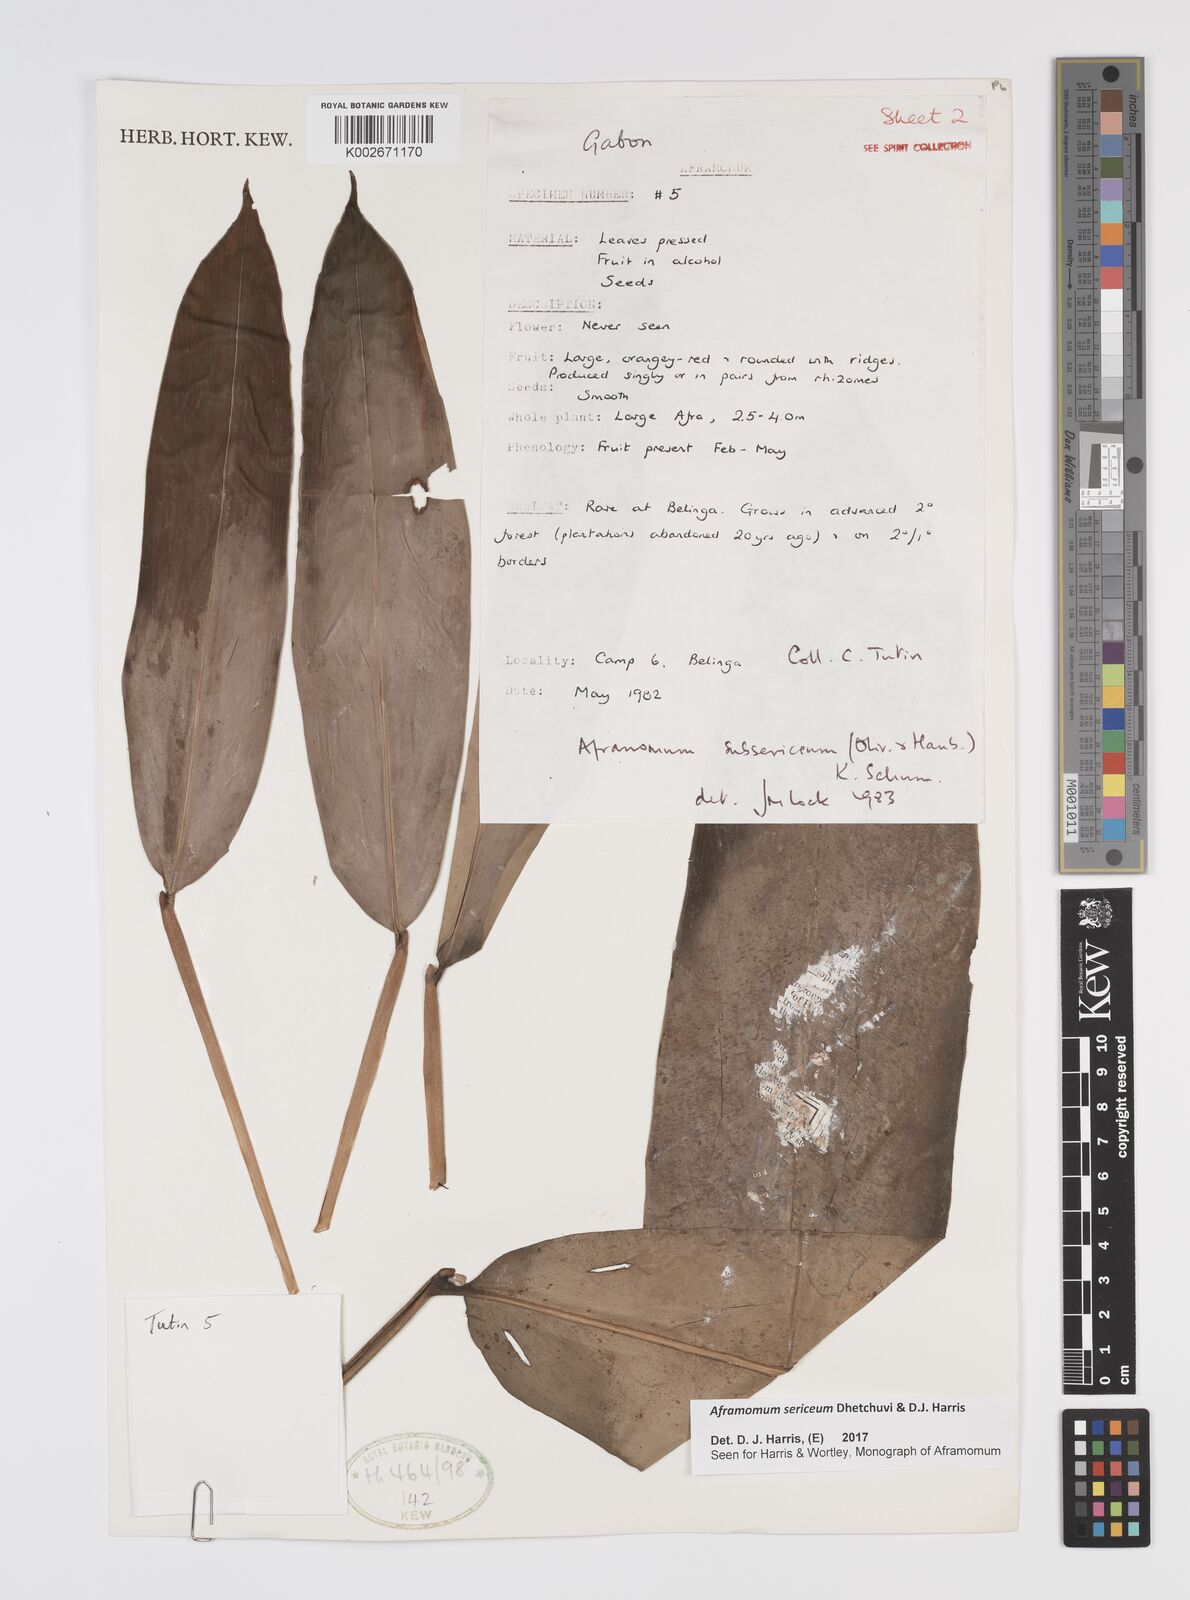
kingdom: Plantae
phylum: Tracheophyta
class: Liliopsida
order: Zingiberales
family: Zingiberaceae
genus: Aframomum
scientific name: Aframomum sericeum
